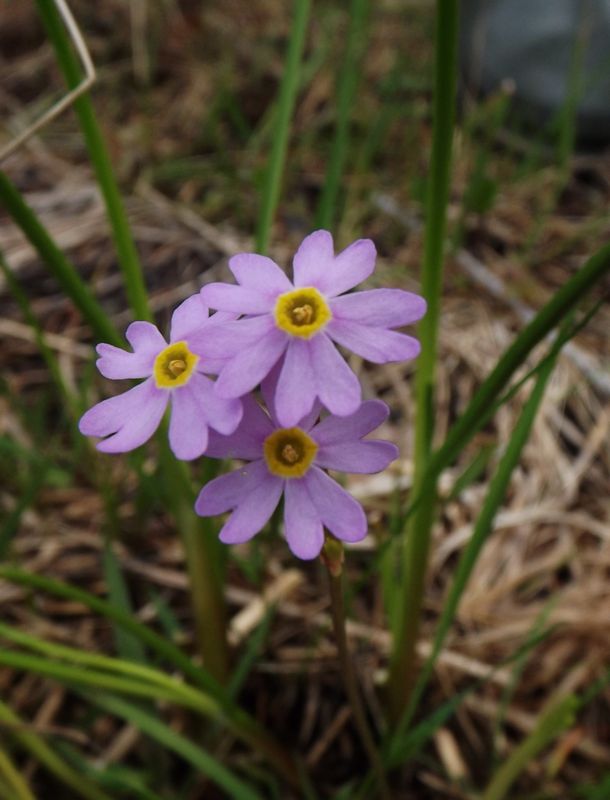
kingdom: Plantae
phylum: Tracheophyta
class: Magnoliopsida
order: Ericales
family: Primulaceae
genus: Primula
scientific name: Primula nutans
